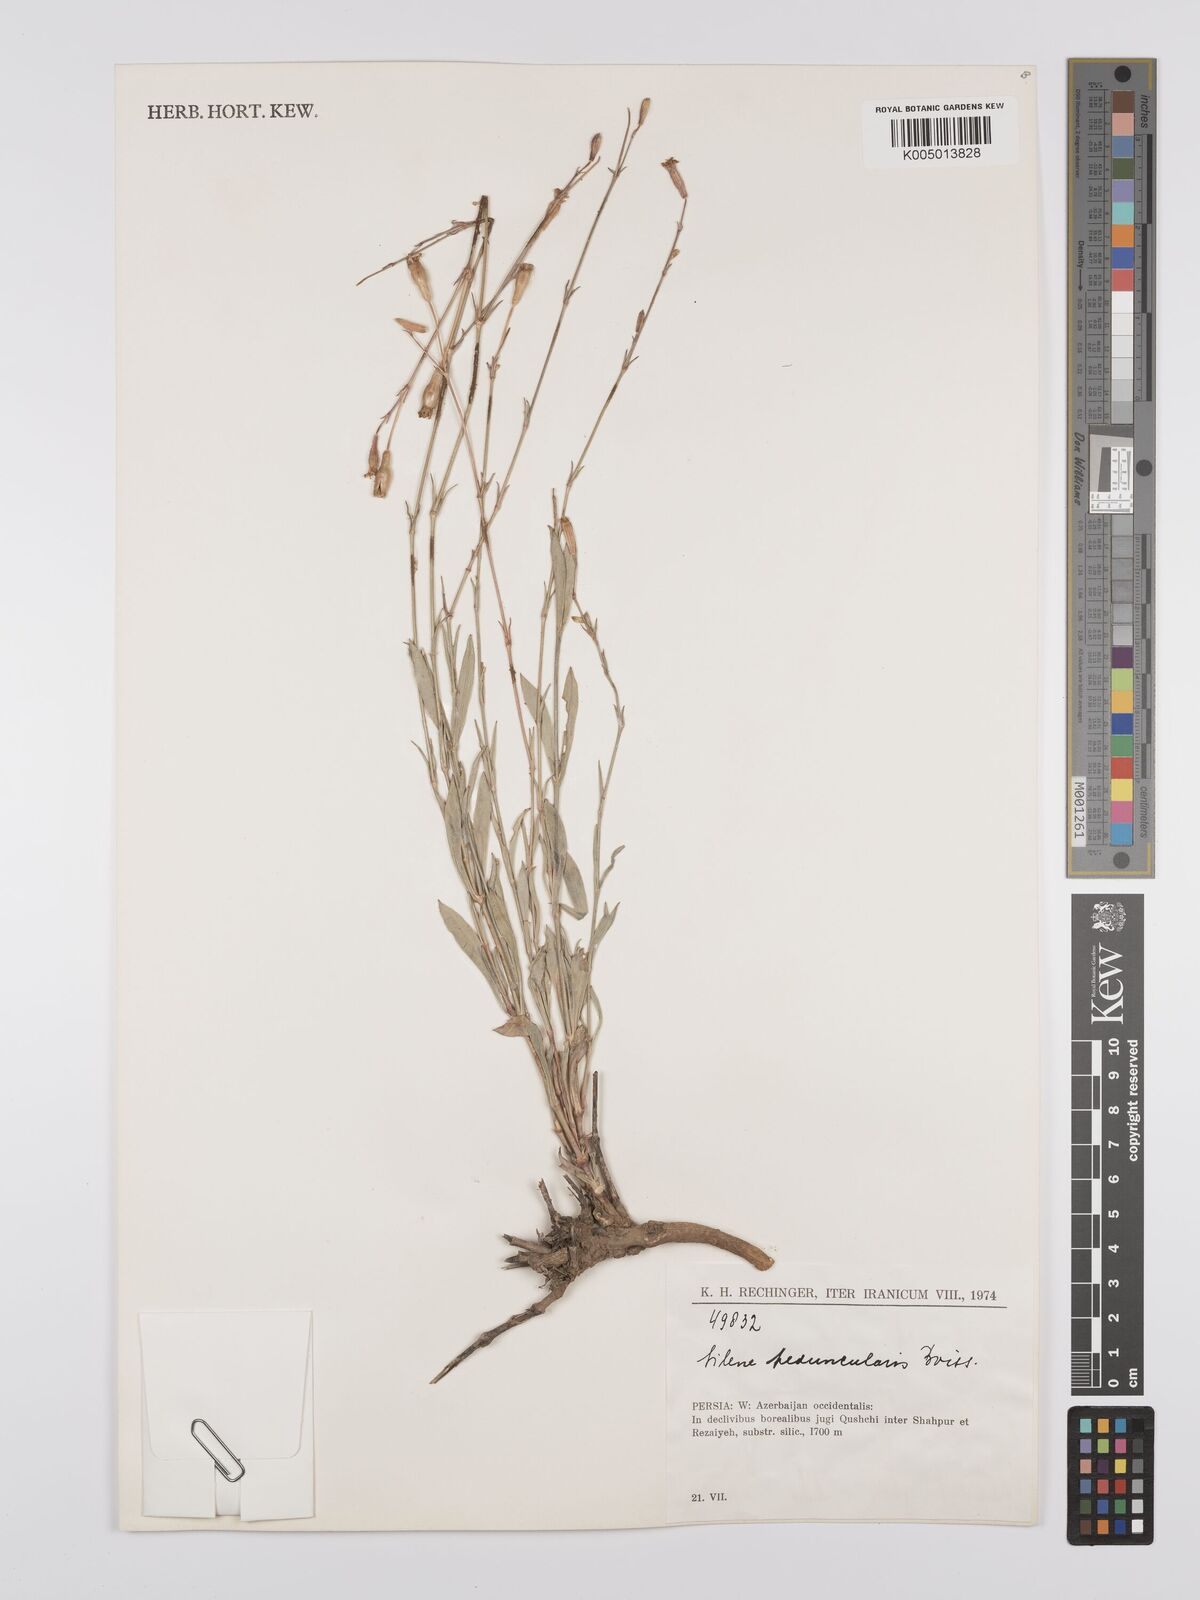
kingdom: Plantae
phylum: Tracheophyta
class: Magnoliopsida
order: Caryophyllales
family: Caryophyllaceae
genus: Silene
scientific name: Silene peduncularis
